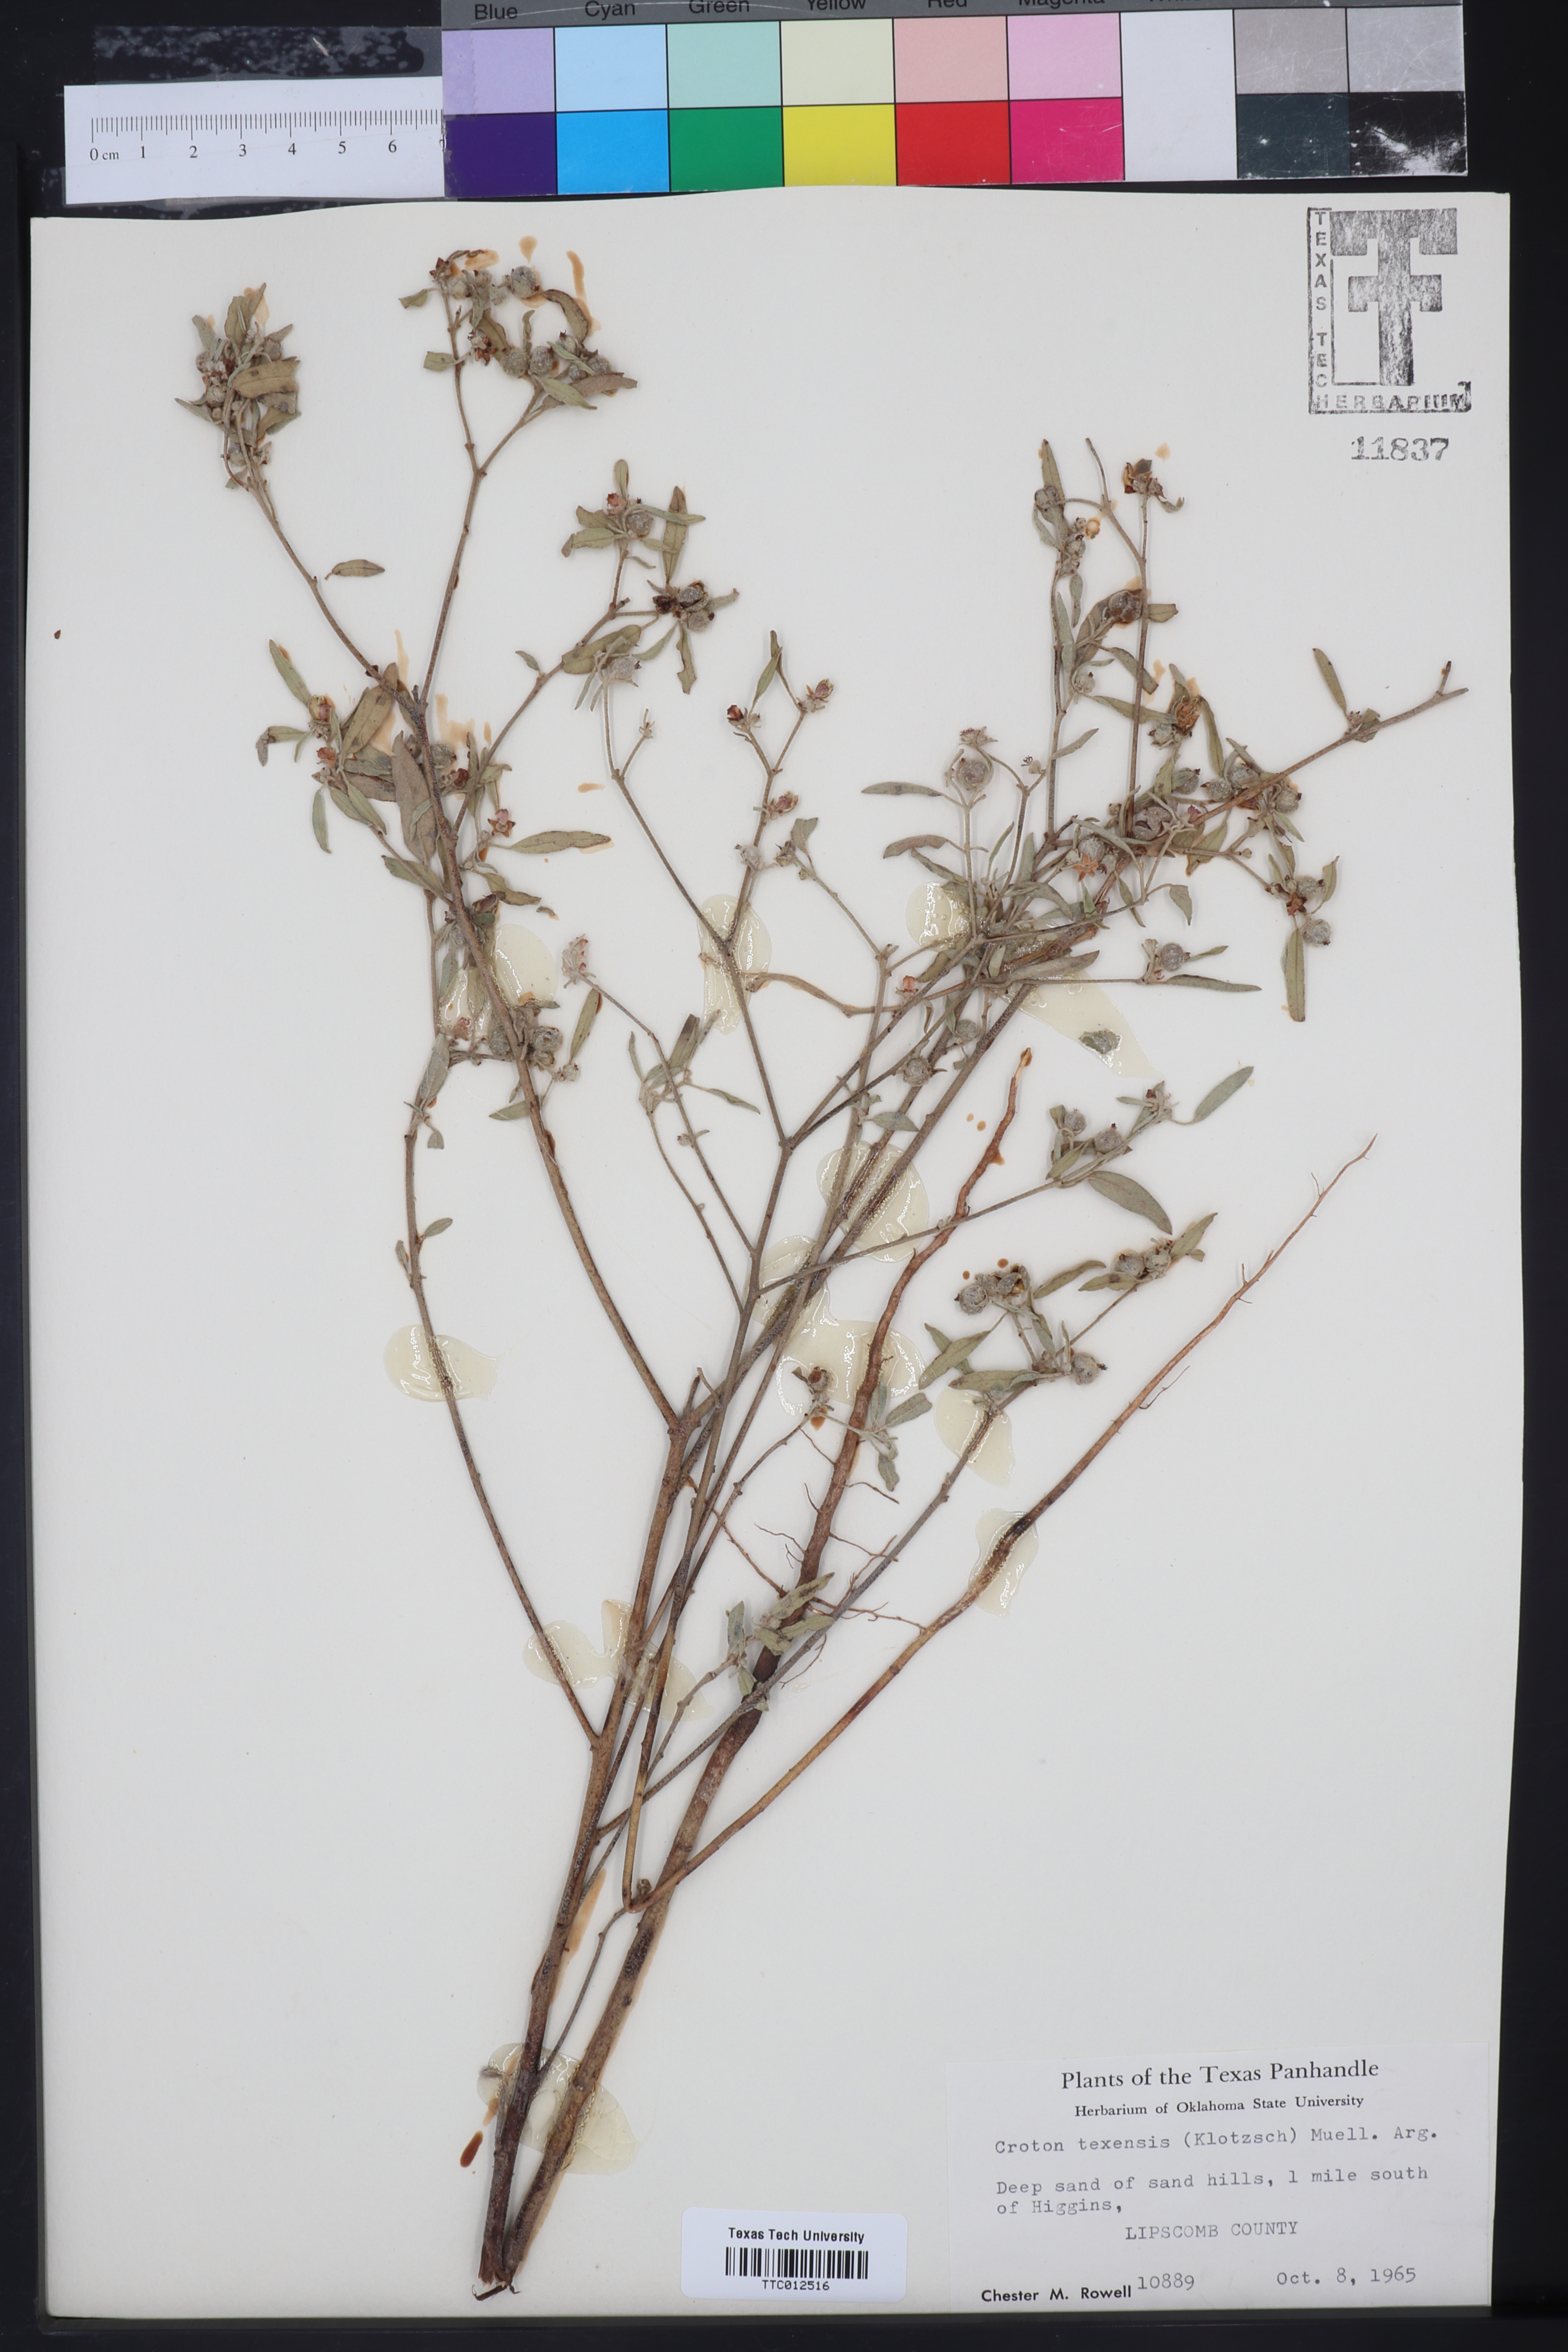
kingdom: Plantae
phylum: Tracheophyta
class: Magnoliopsida
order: Malpighiales
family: Euphorbiaceae
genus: Croton
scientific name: Croton texensis
